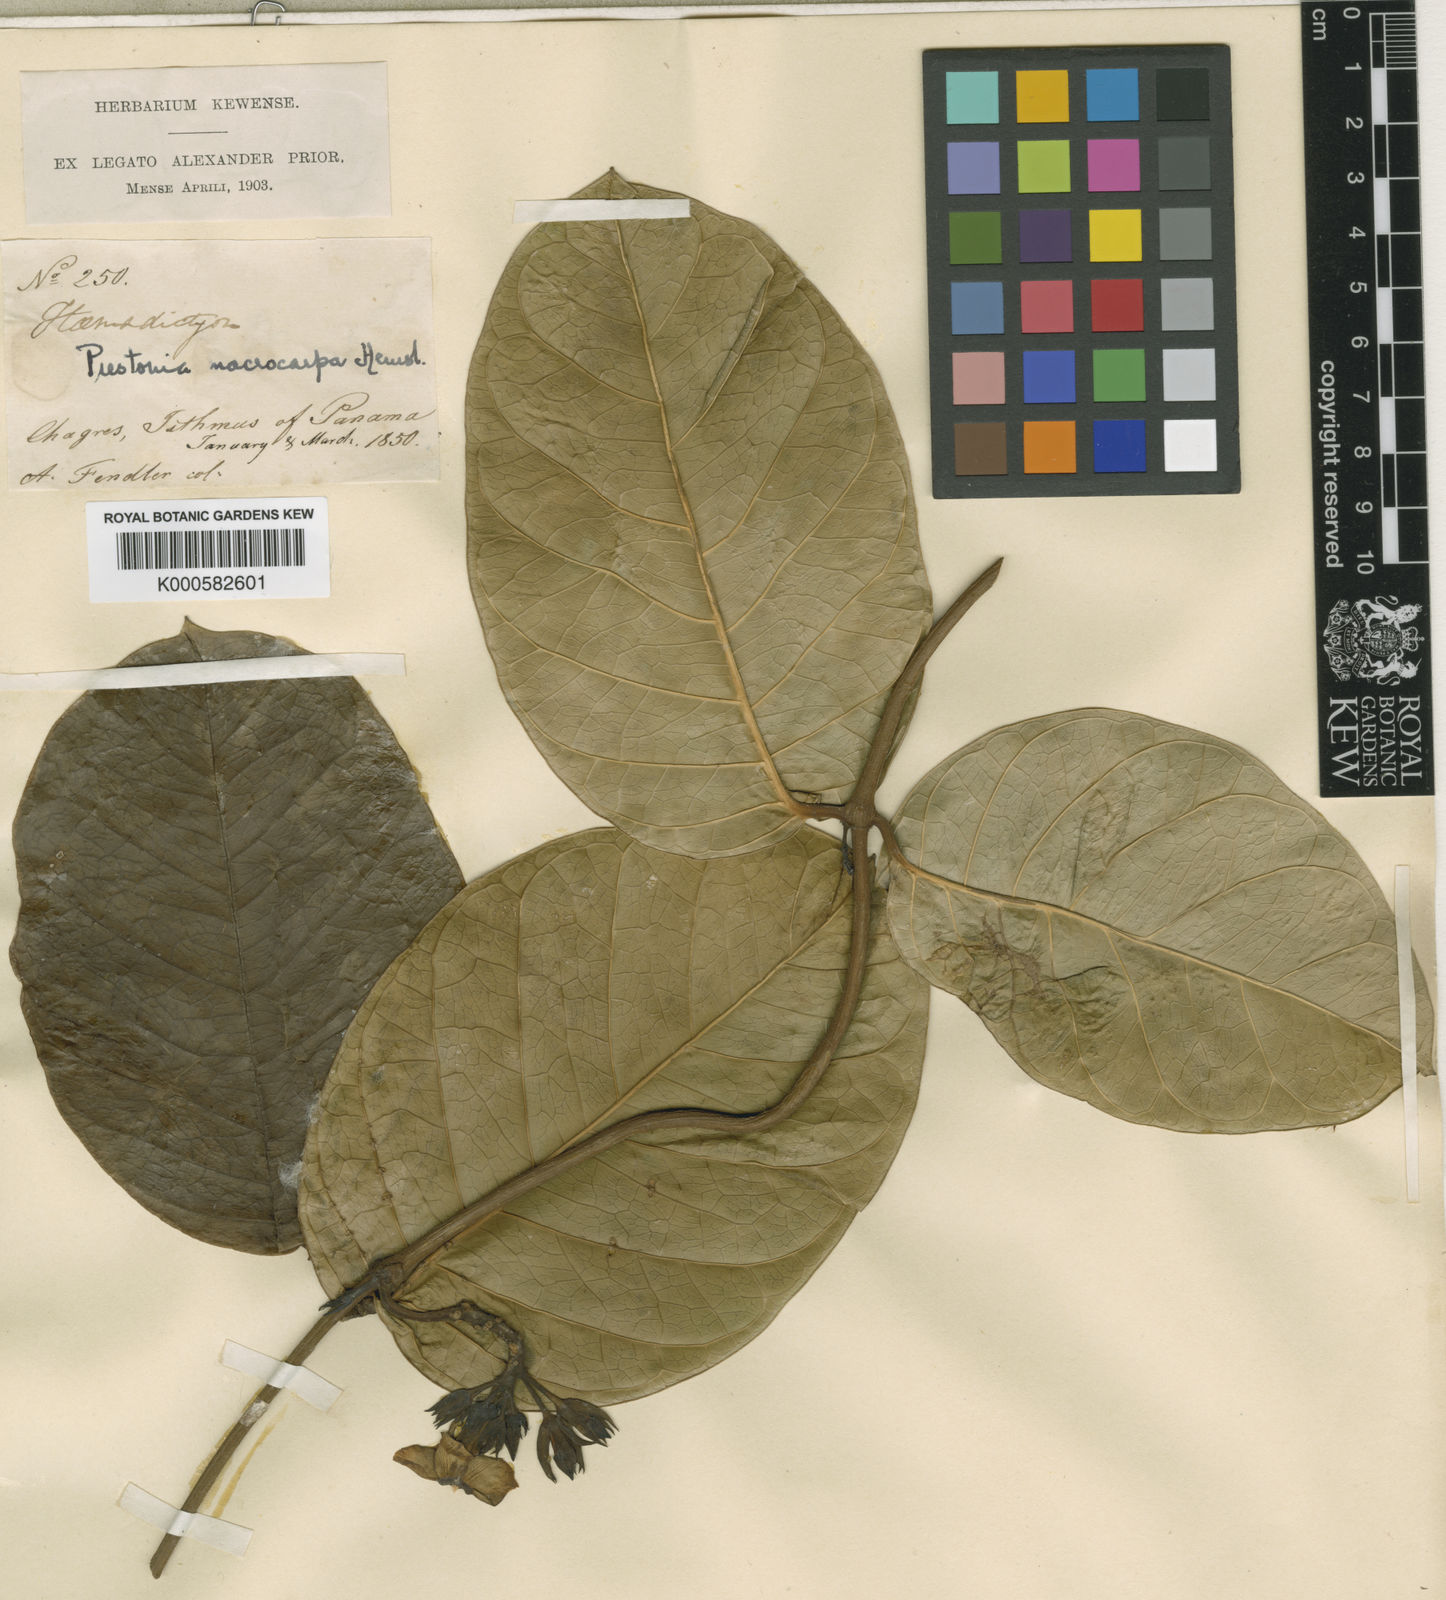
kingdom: Plantae
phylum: Tracheophyta
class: Magnoliopsida
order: Gentianales
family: Apocynaceae
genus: Prestonia
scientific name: Prestonia portobellensis
